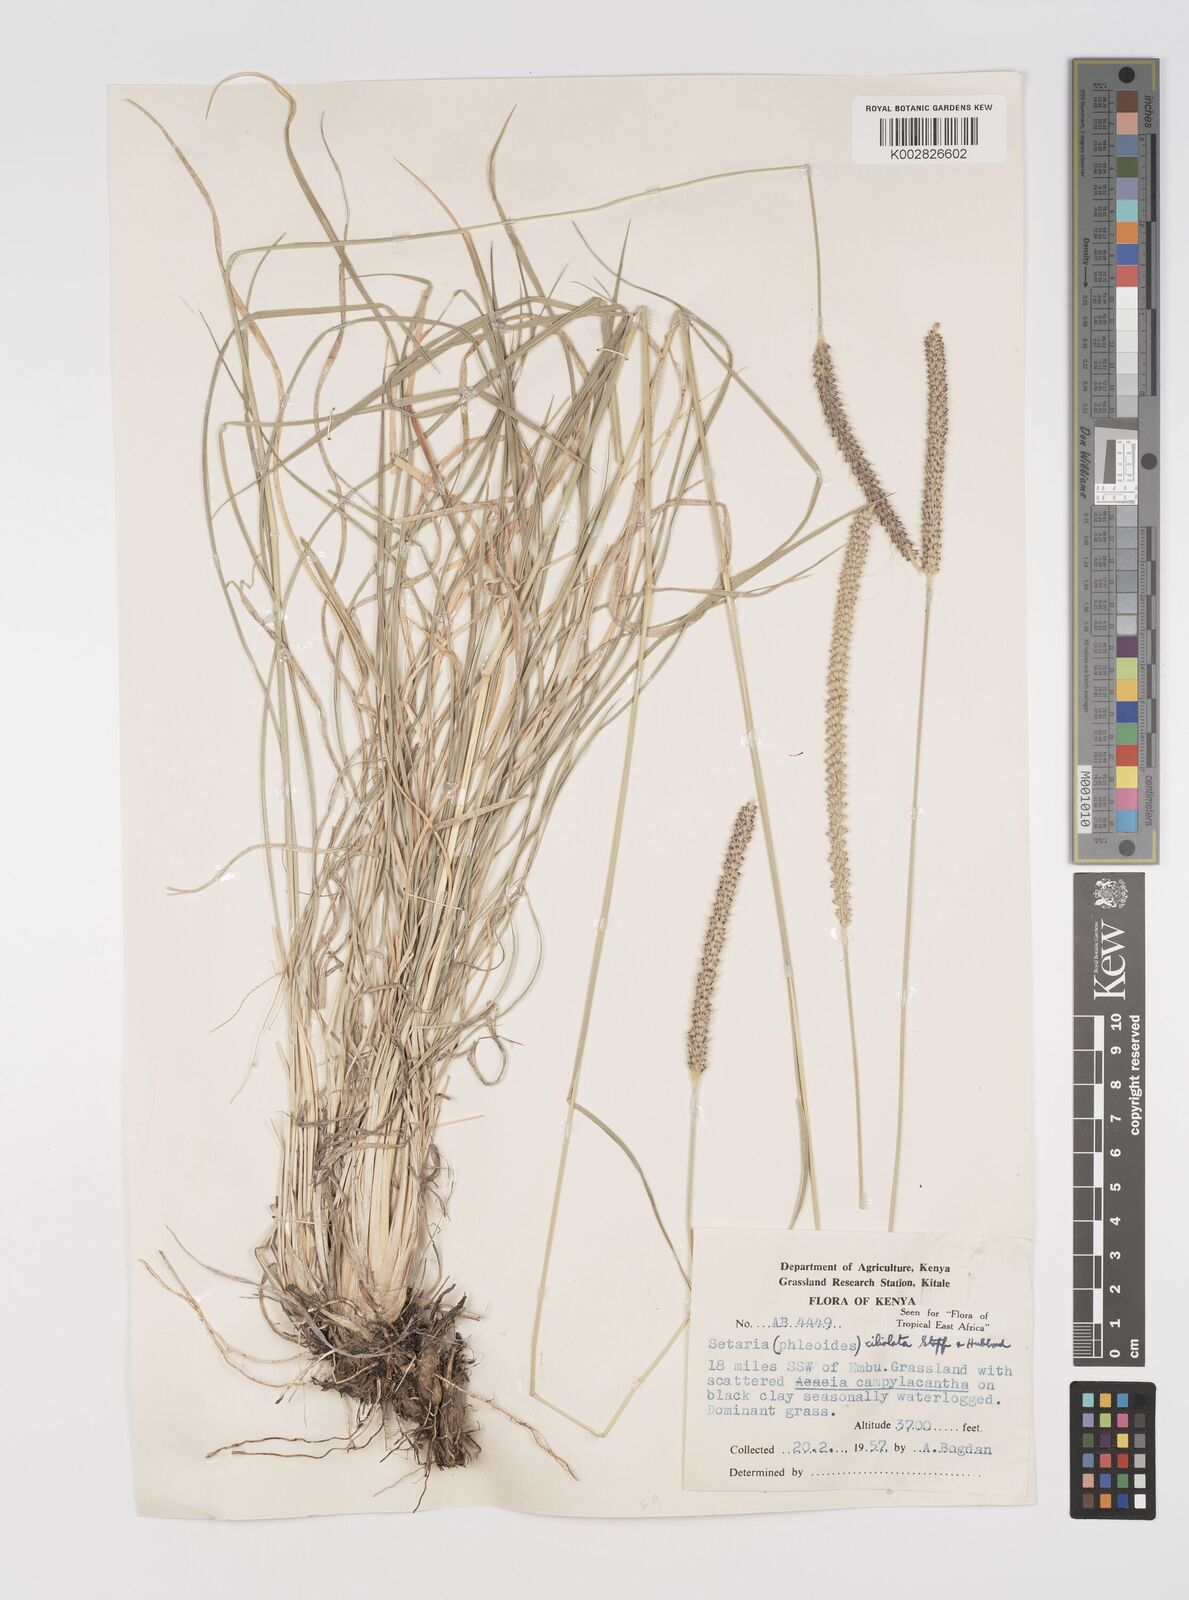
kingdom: Plantae
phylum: Tracheophyta
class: Liliopsida
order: Poales
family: Poaceae
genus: Setaria
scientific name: Setaria incrassata
